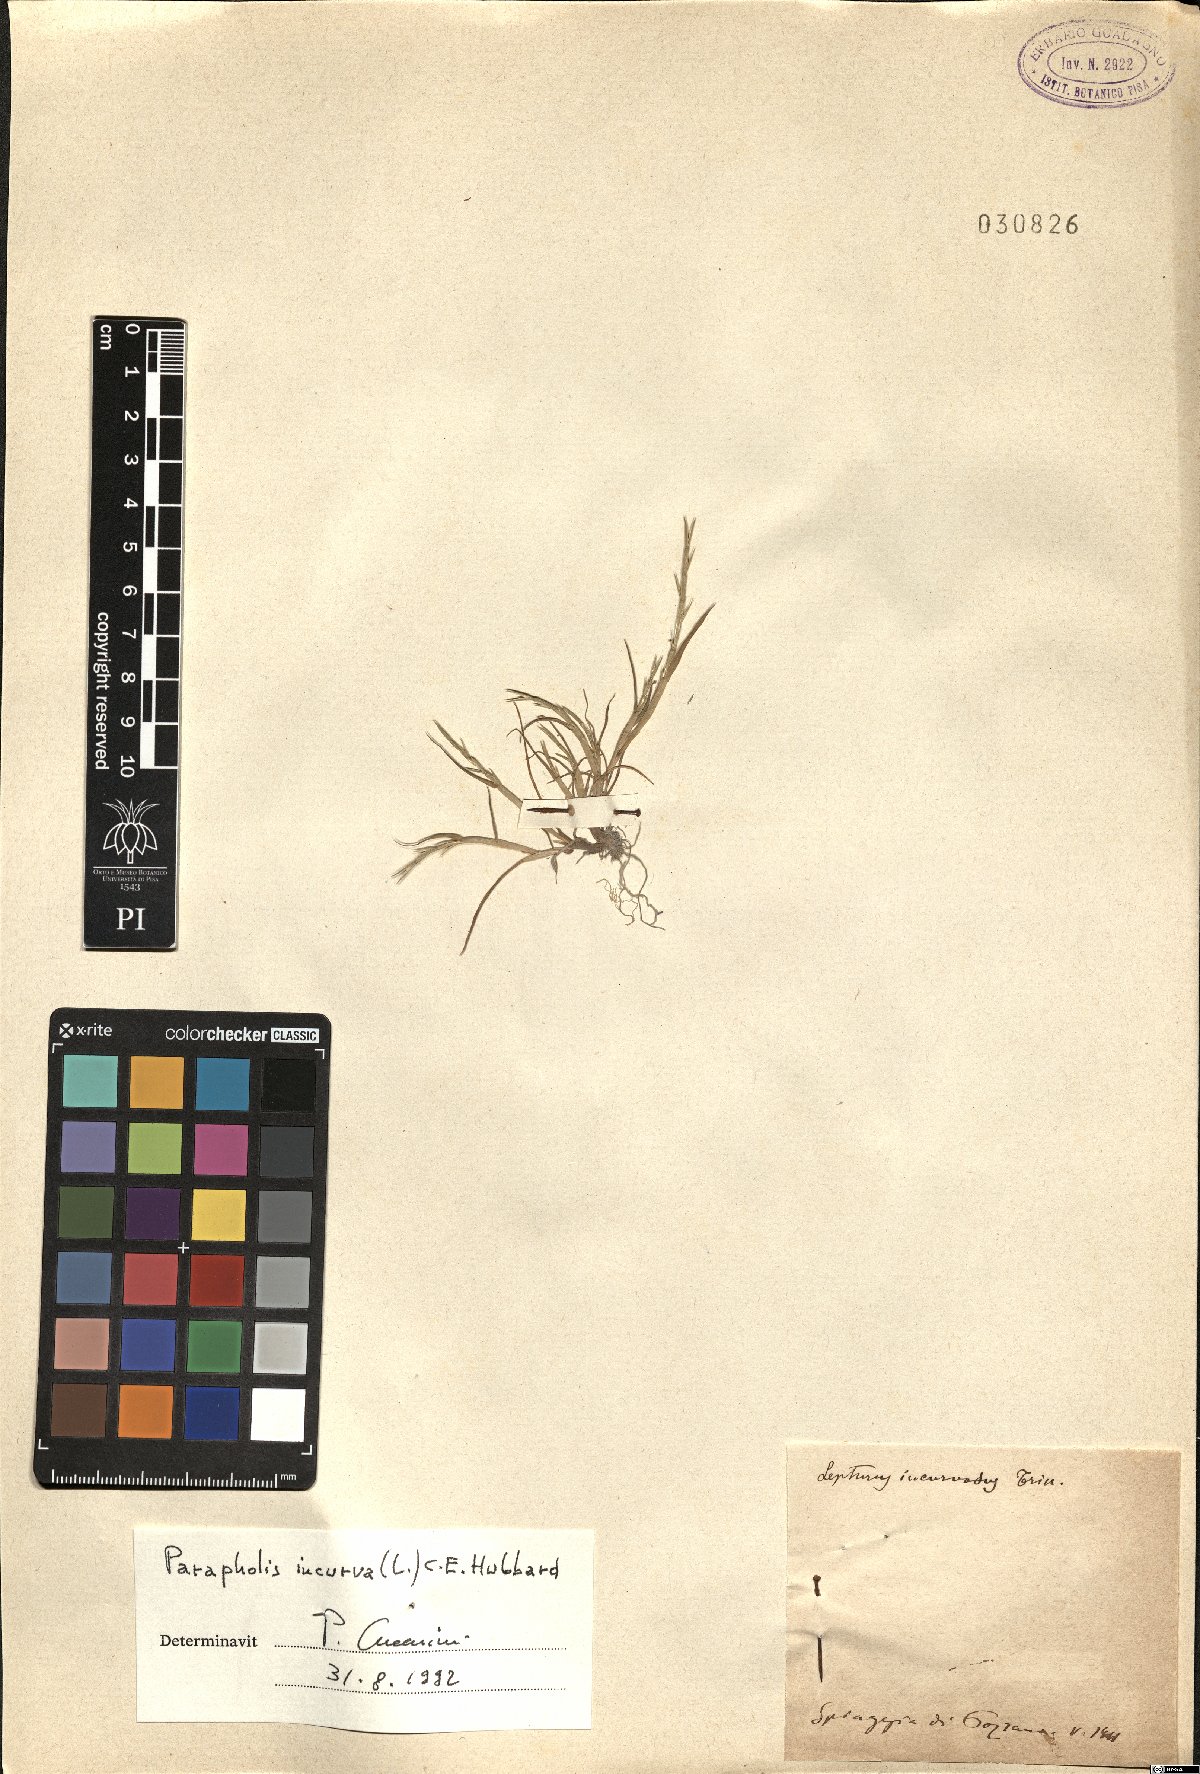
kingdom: Plantae
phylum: Tracheophyta
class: Liliopsida
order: Poales
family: Poaceae
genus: Parapholis
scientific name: Parapholis incurva
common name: Curved sicklegrass
